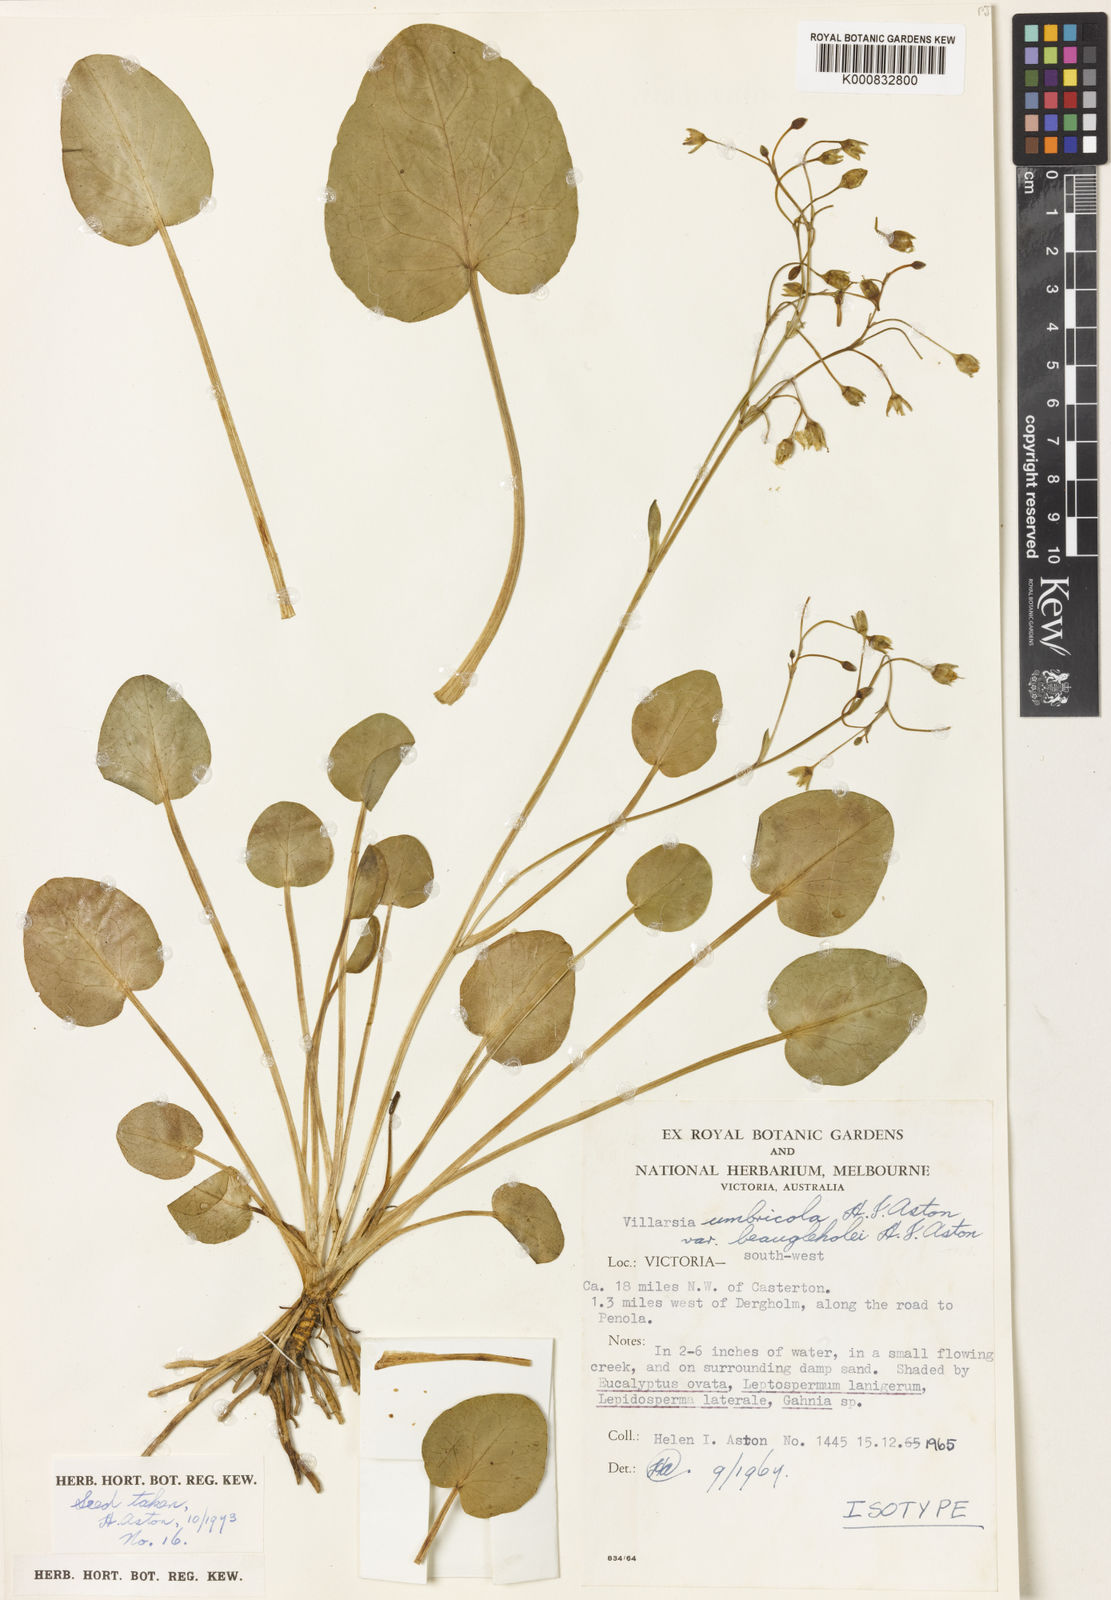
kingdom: Plantae
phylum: Tracheophyta
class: Magnoliopsida
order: Asterales
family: Menyanthaceae
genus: Ornduffia
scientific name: Ornduffia umbricola
